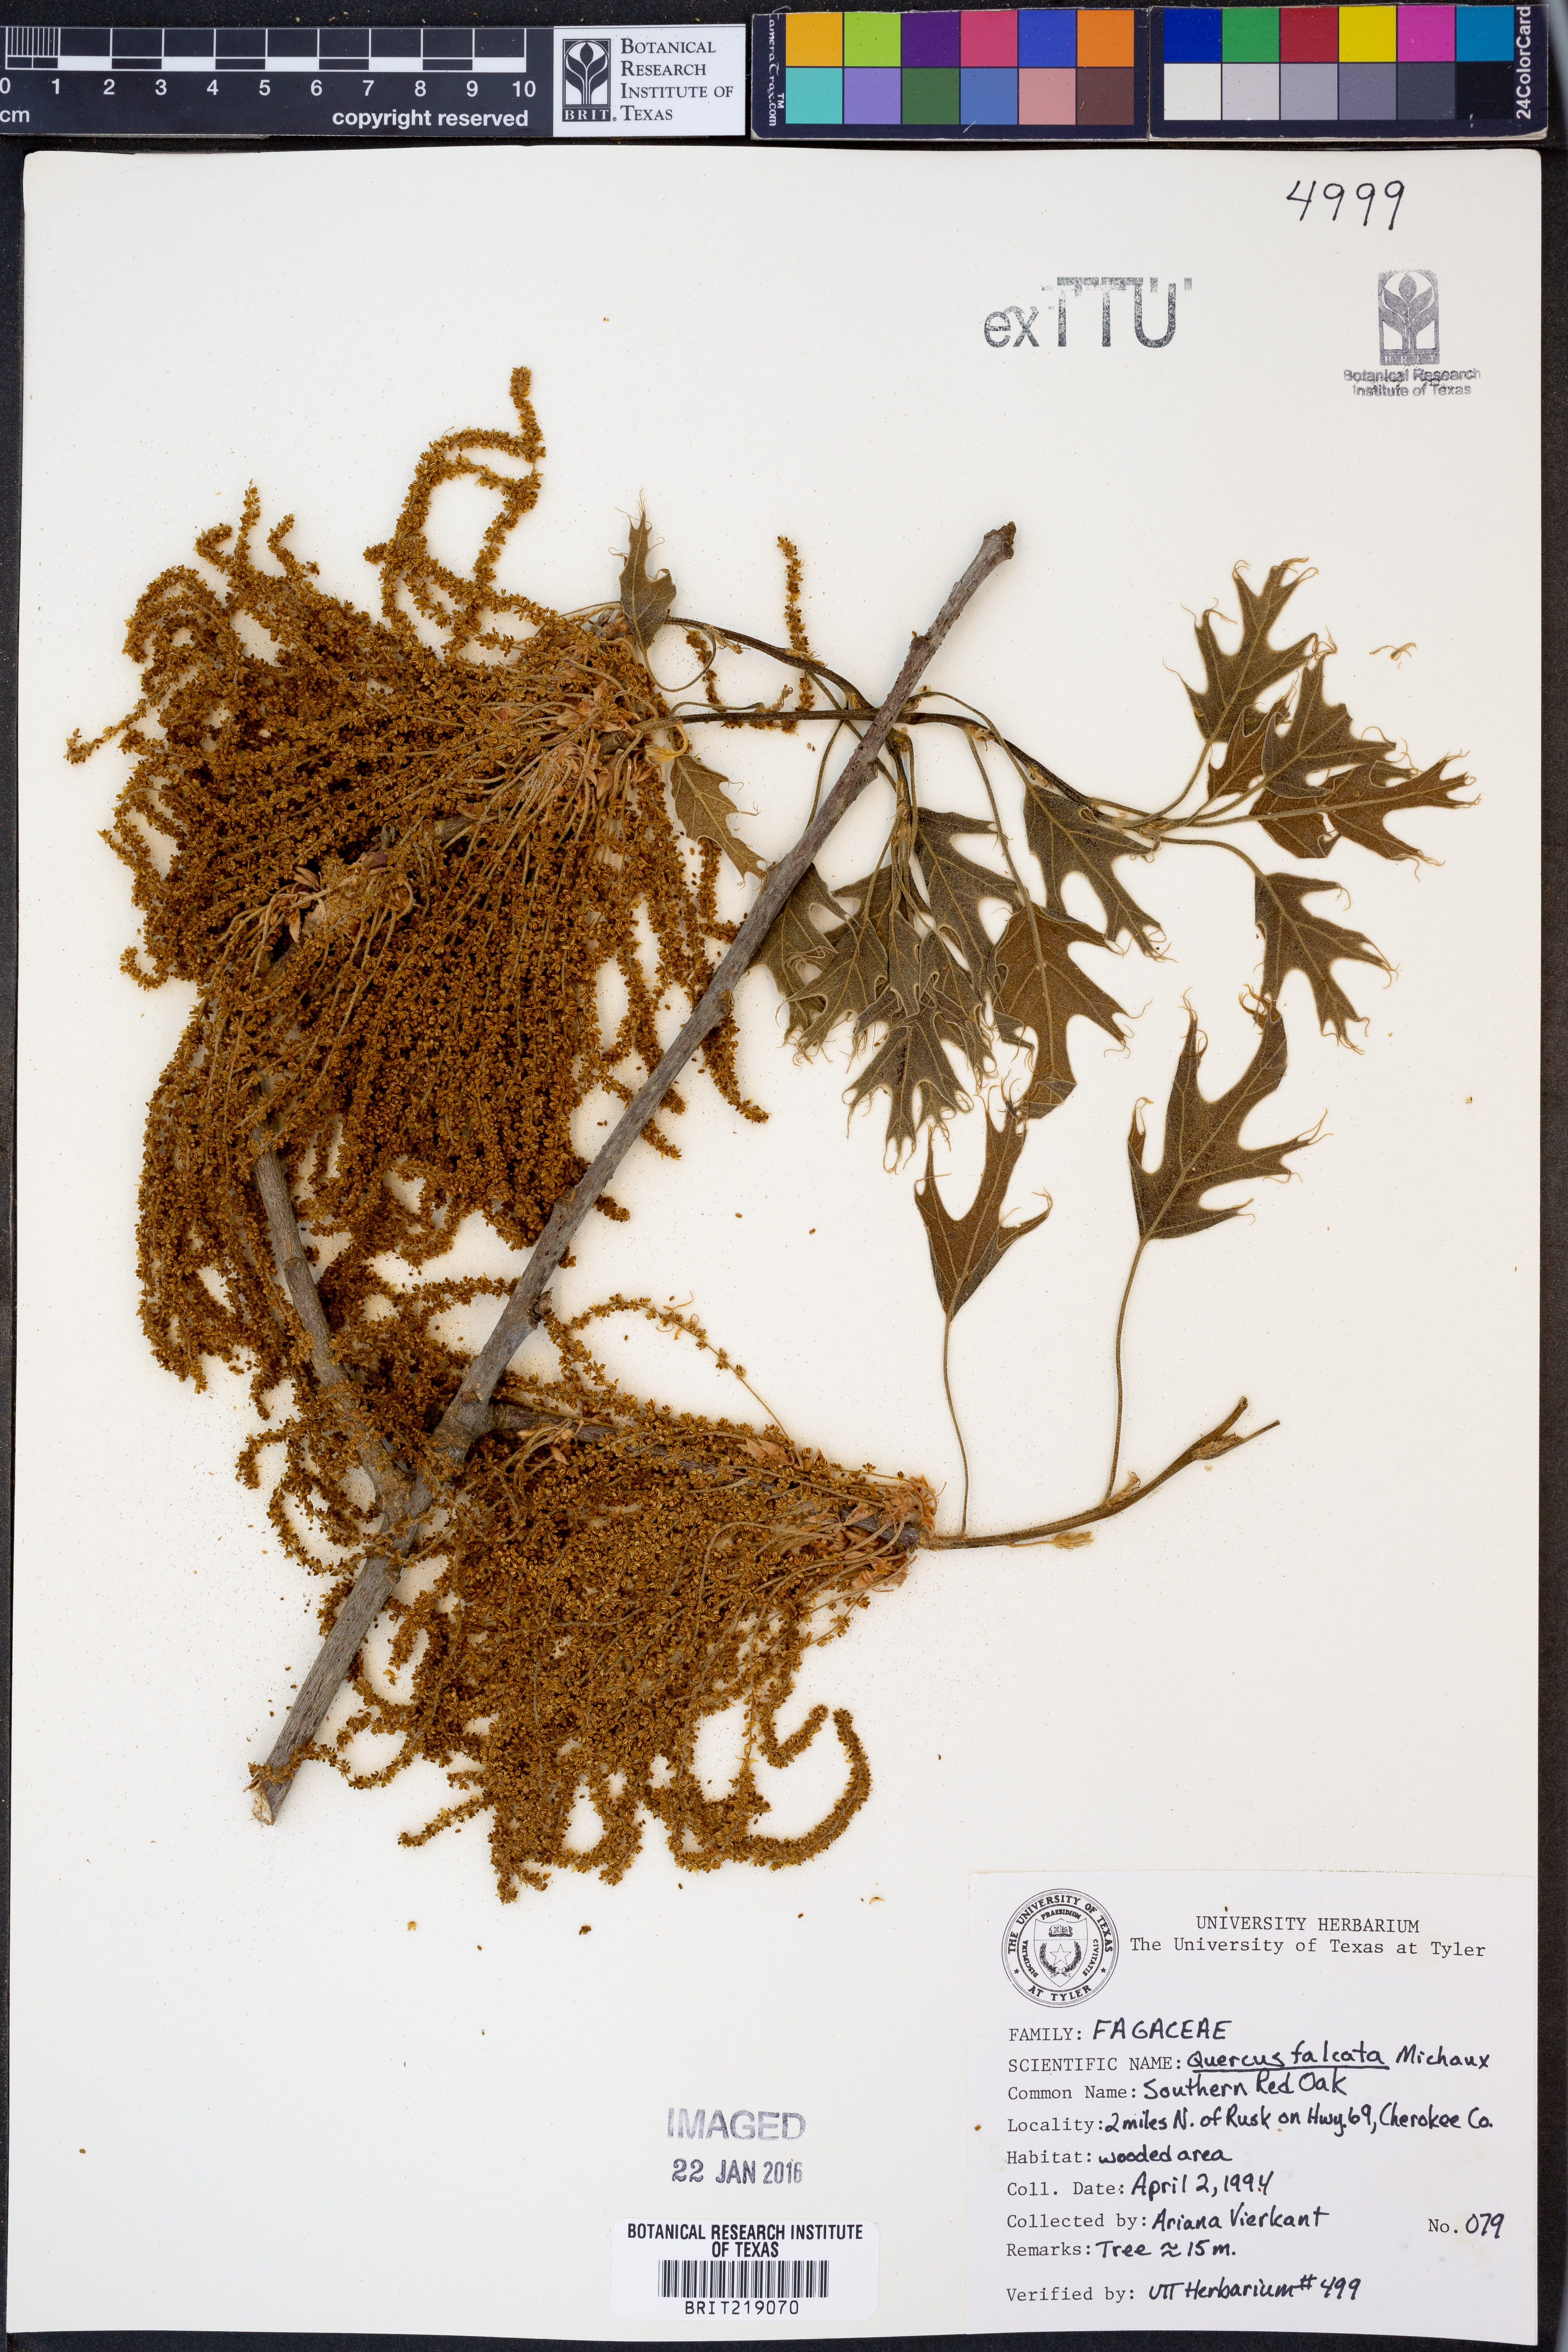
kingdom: Plantae
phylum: Tracheophyta
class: Magnoliopsida
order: Fagales
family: Fagaceae
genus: Quercus
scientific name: Quercus falcata
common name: Southern red oak
